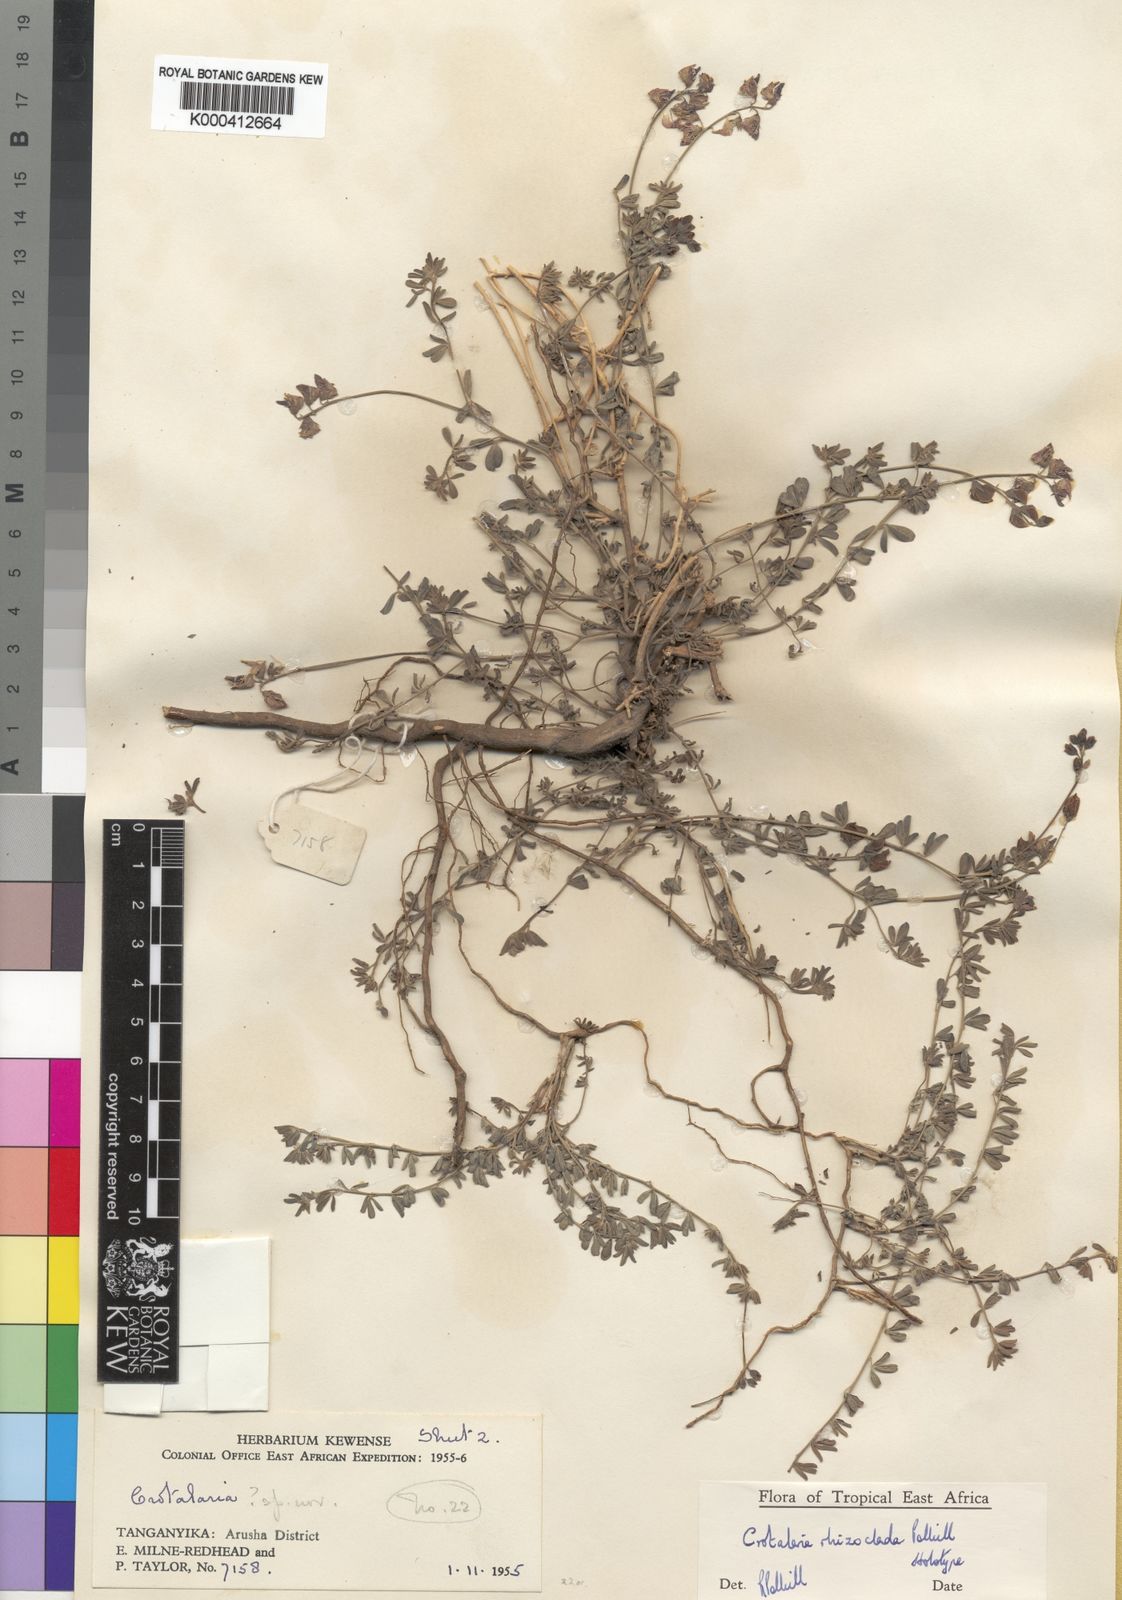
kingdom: Plantae
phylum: Tracheophyta
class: Magnoliopsida
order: Fabales
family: Fabaceae
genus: Crotalaria
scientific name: Crotalaria rhizoclada
